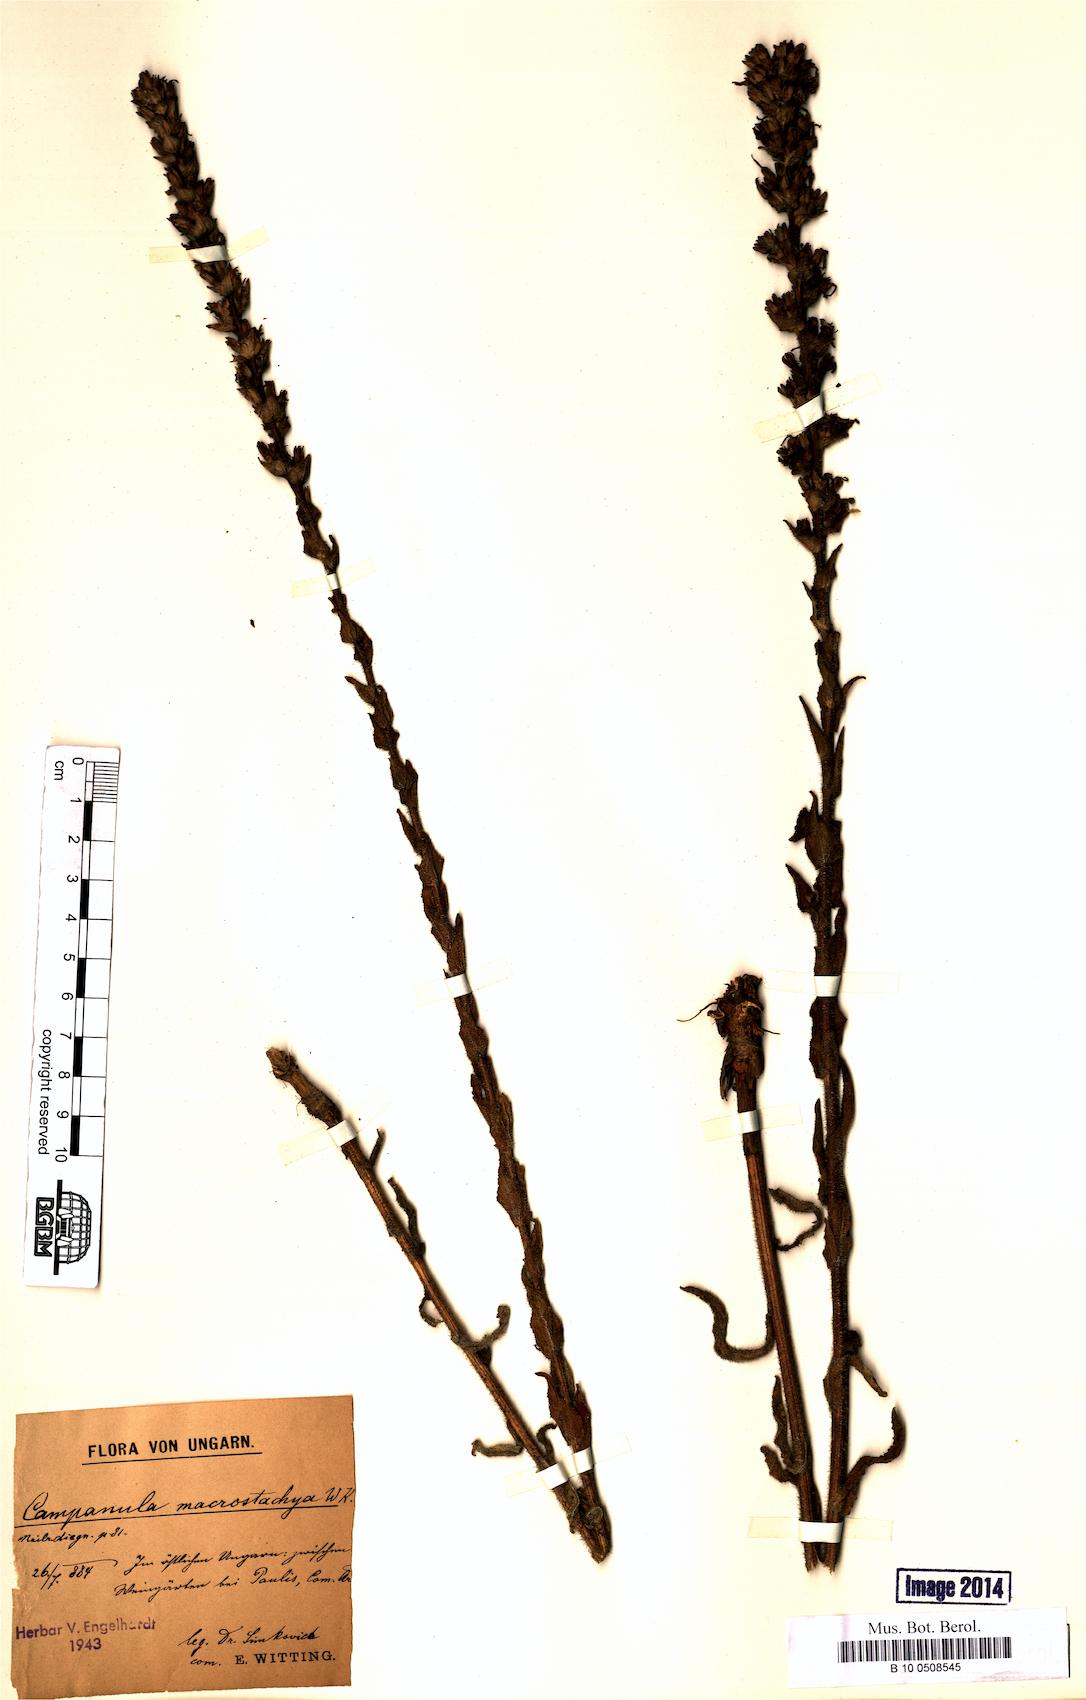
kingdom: Plantae
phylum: Tracheophyta
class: Magnoliopsida
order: Asterales
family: Campanulaceae
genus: Campanula
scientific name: Campanula macrostachya
